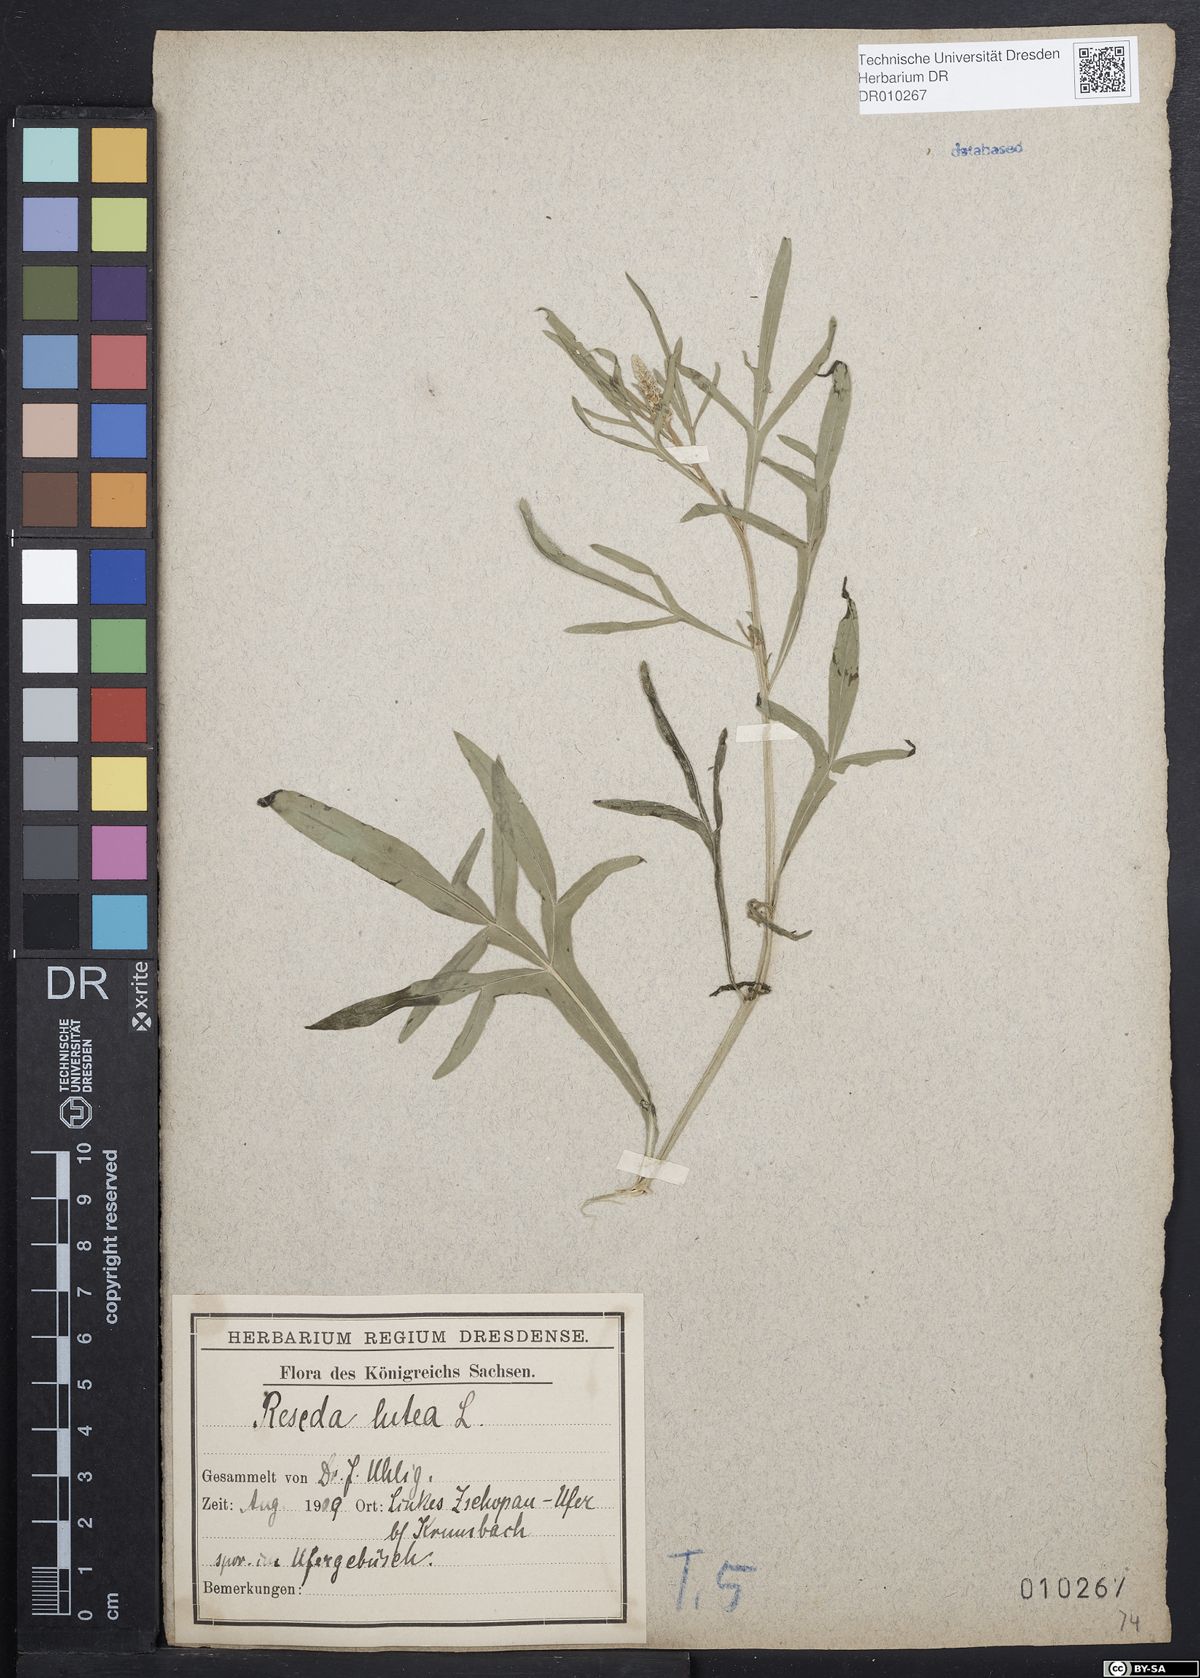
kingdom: Plantae
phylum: Tracheophyta
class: Magnoliopsida
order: Brassicales
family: Resedaceae
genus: Reseda
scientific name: Reseda lutea
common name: Wild mignonette
